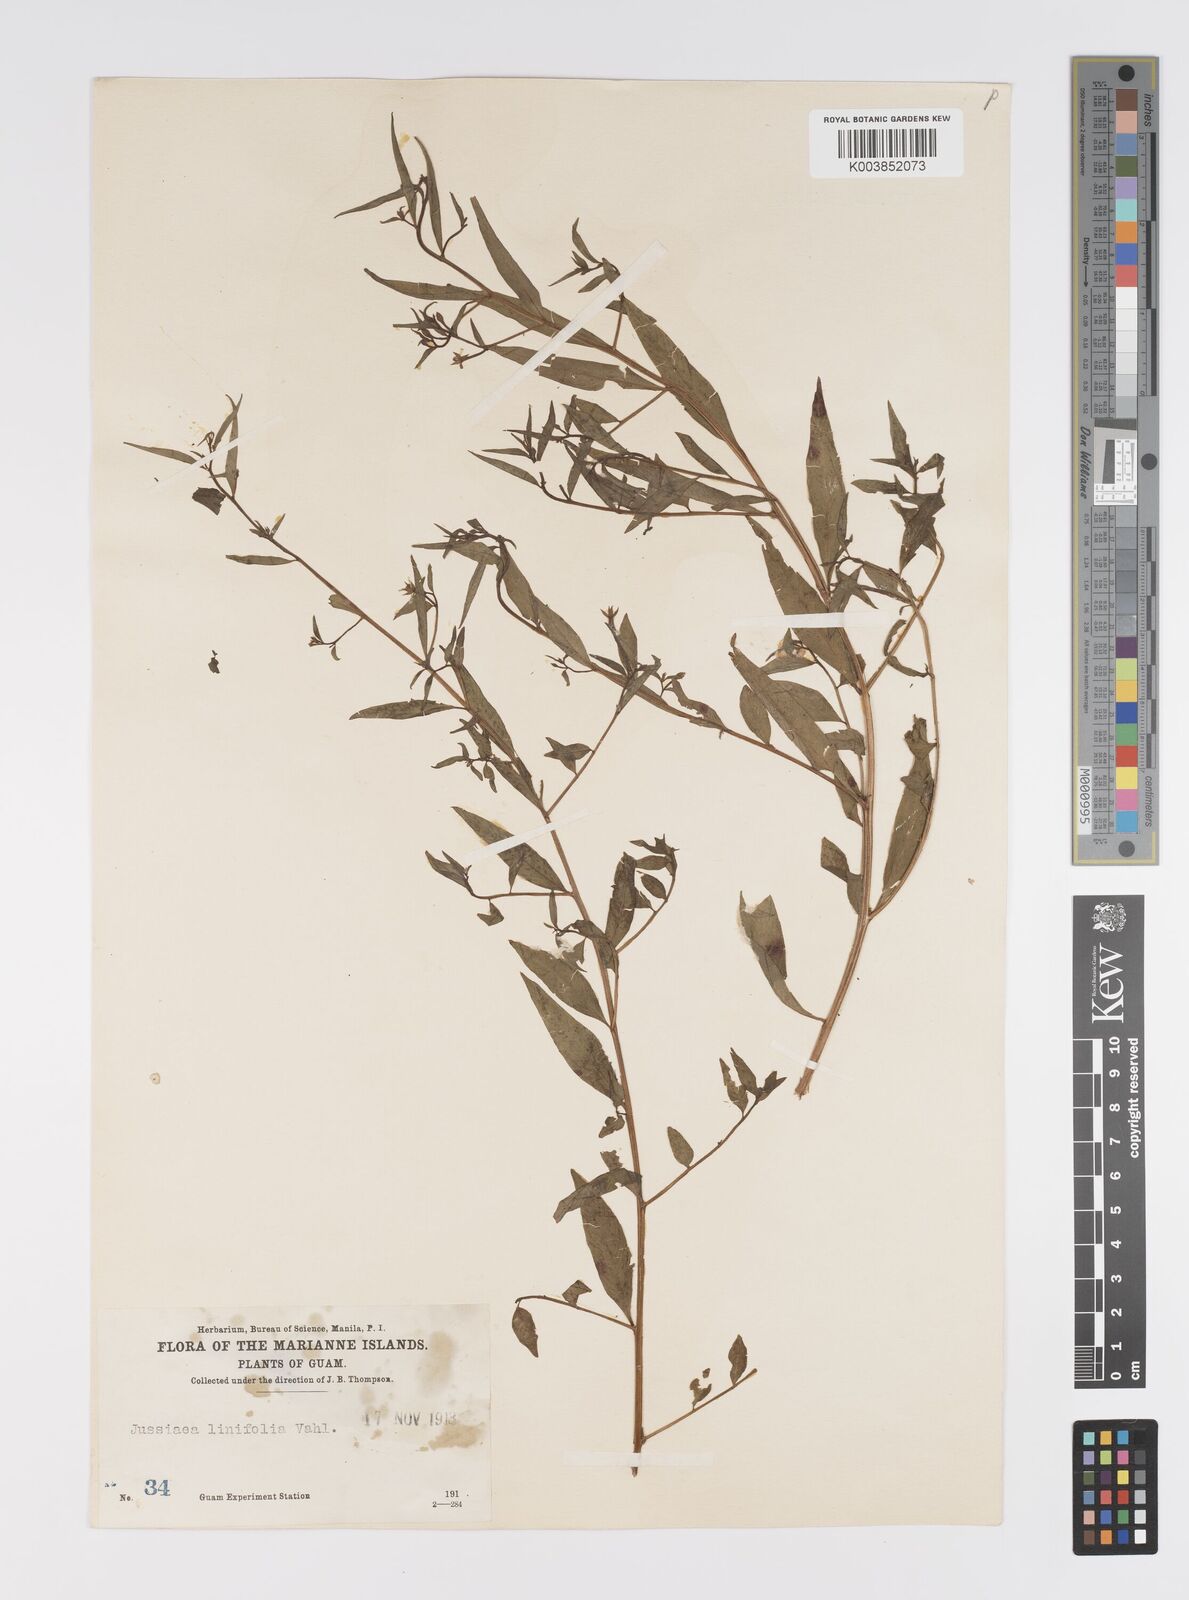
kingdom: Plantae
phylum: Tracheophyta
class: Magnoliopsida
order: Myrtales
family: Onagraceae
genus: Ludwigia
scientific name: Ludwigia hyssopifolia
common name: Linear leaf water primrose
